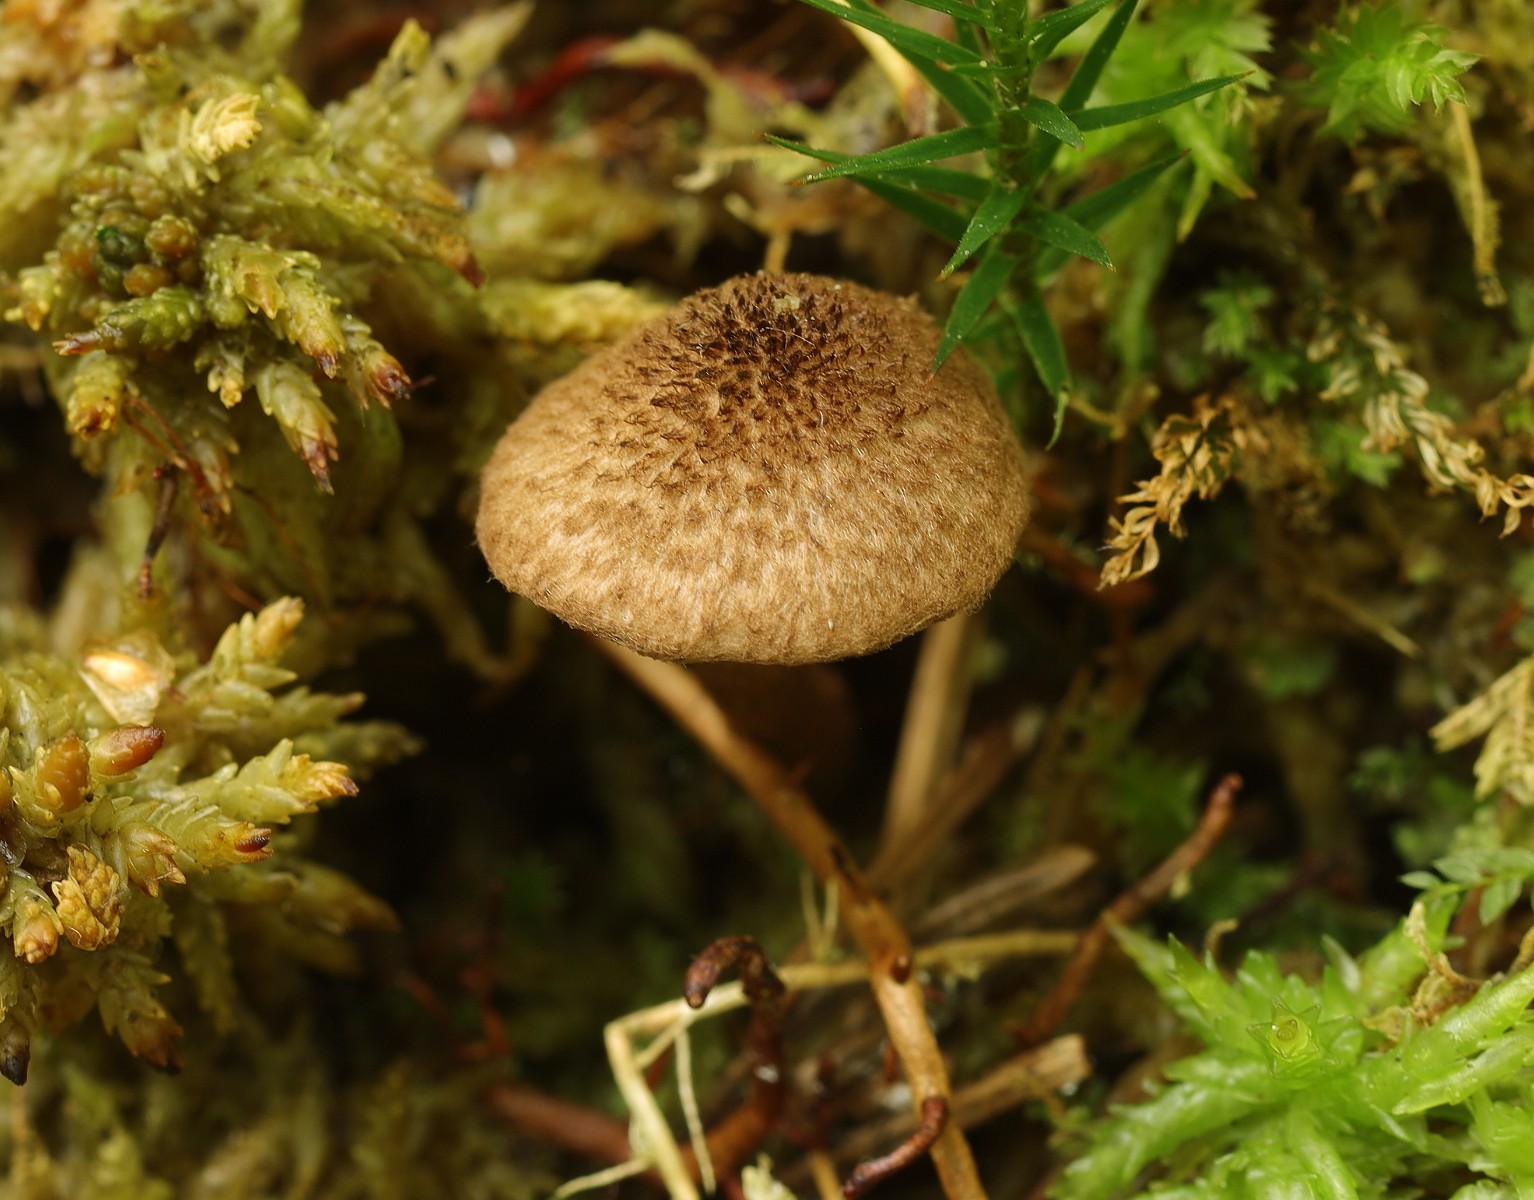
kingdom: Fungi
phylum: Basidiomycota
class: Agaricomycetes
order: Agaricales
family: Inocybaceae
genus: Inocybe
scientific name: Inocybe
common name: trævlhat
